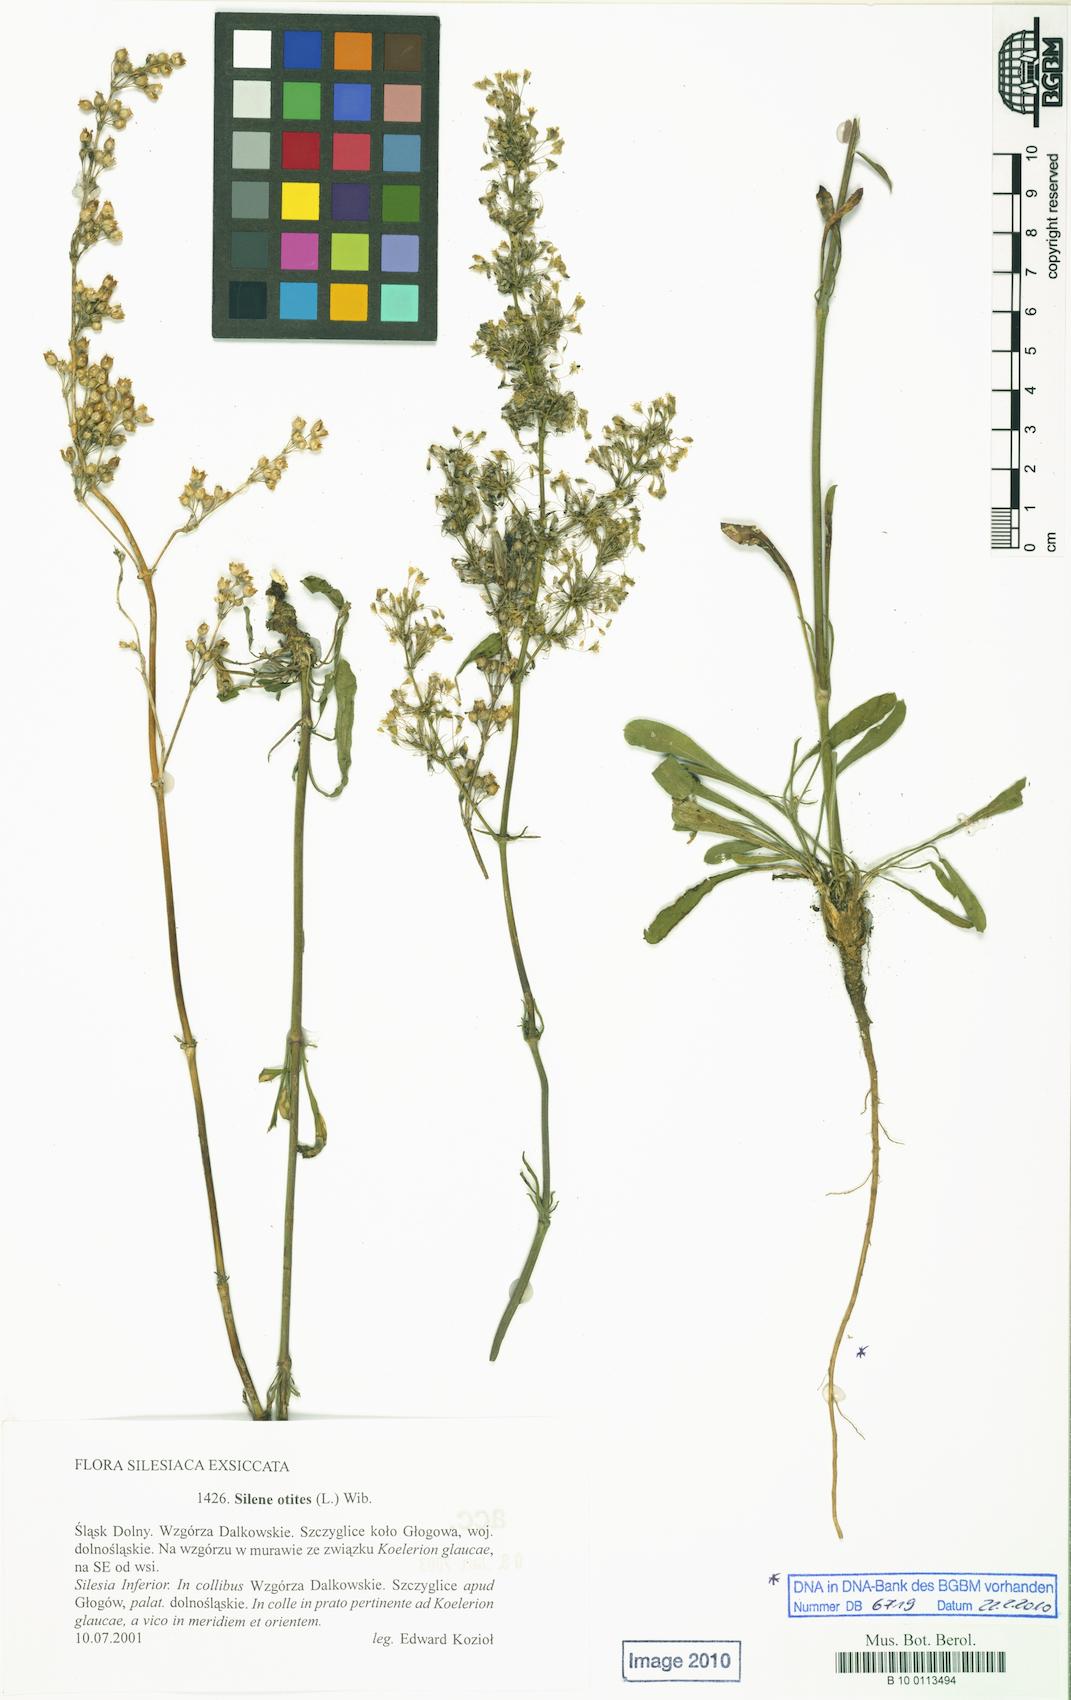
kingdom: Plantae
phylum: Tracheophyta
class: Magnoliopsida
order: Caryophyllales
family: Caryophyllaceae
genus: Silene
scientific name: Silene otites
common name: Spanish catchfly
